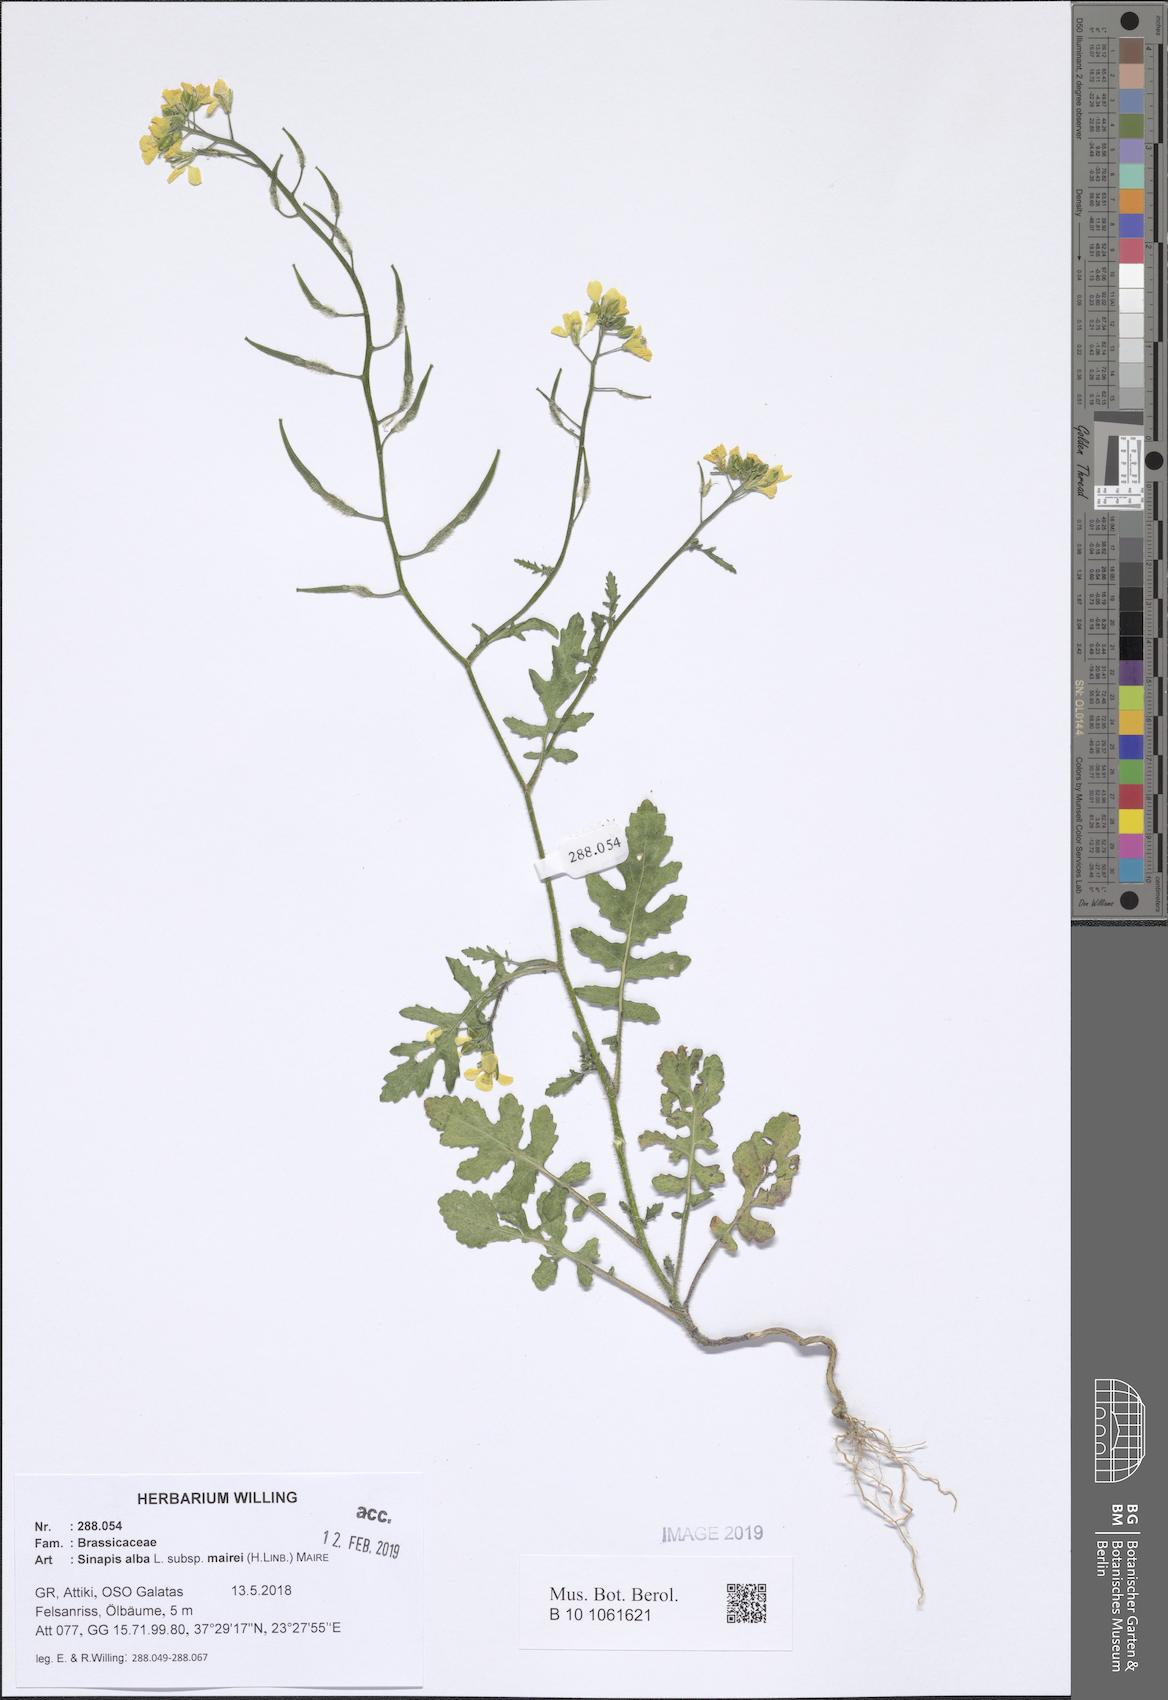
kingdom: Plantae
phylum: Tracheophyta
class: Magnoliopsida
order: Brassicales
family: Brassicaceae
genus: Sinapis
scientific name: Sinapis alba
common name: White mustard
